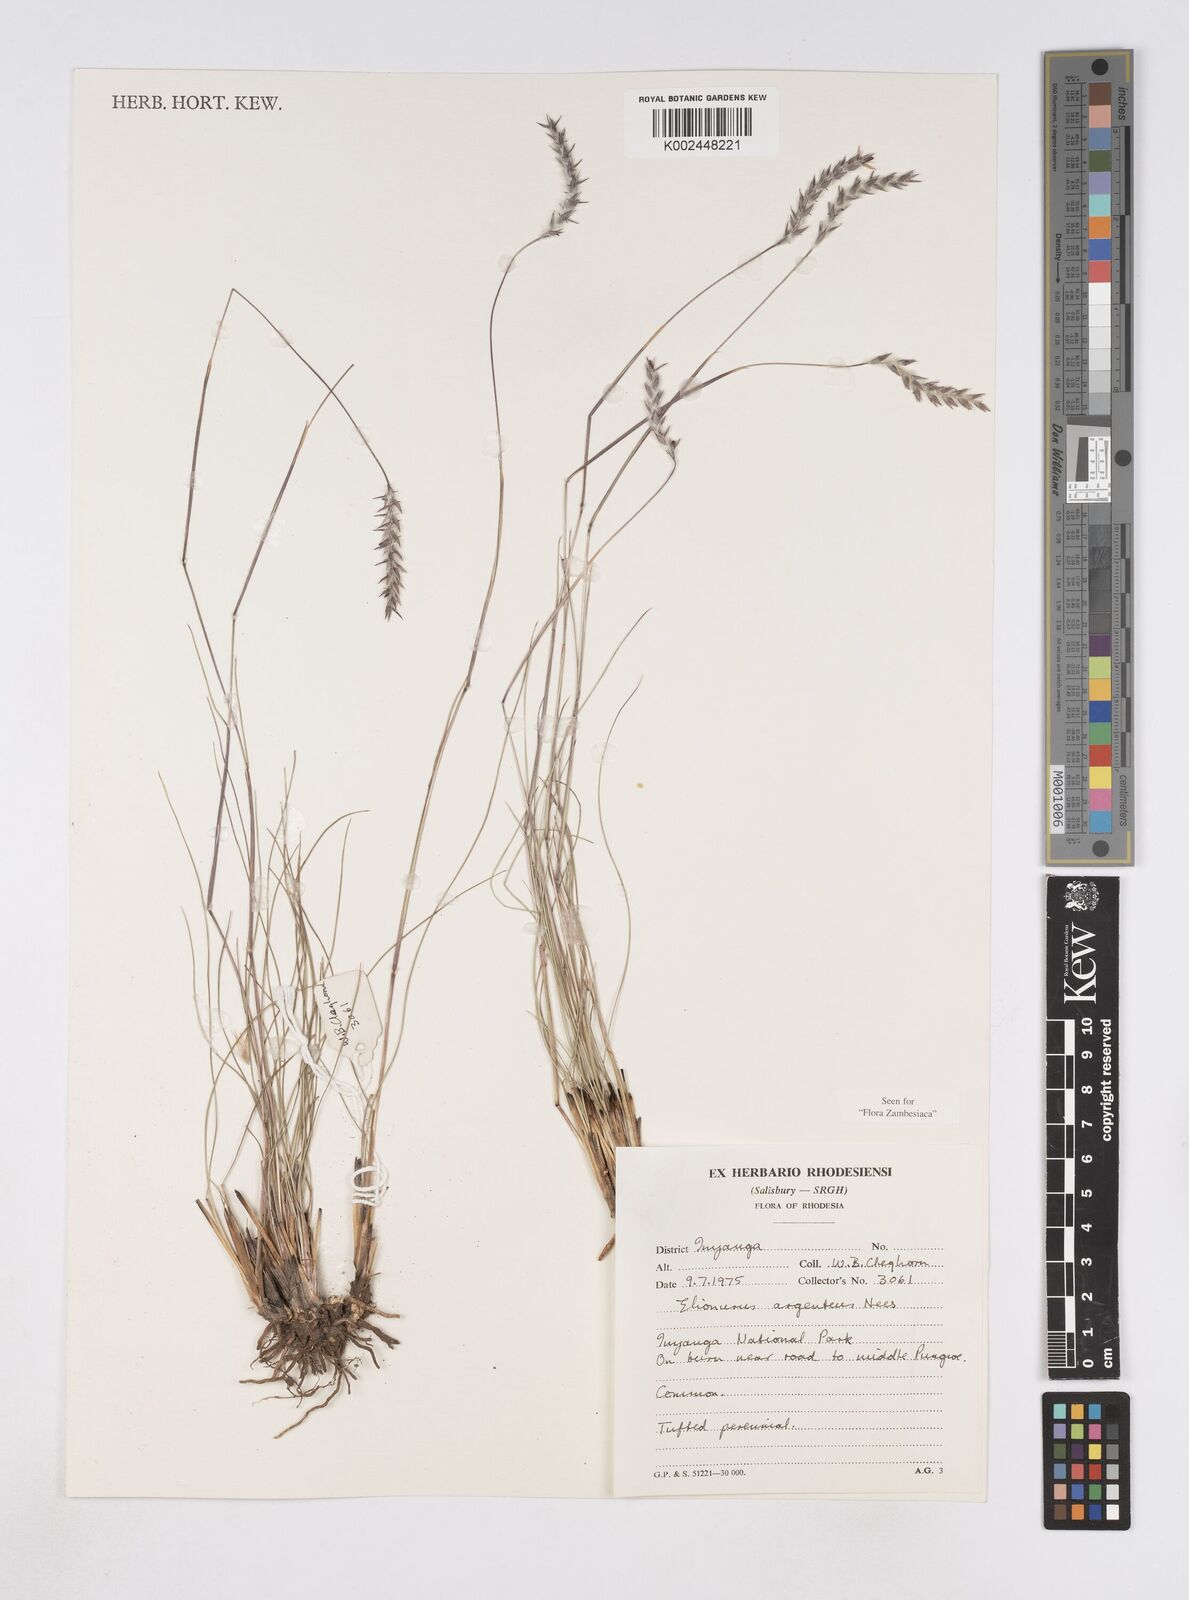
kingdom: Plantae
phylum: Tracheophyta
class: Liliopsida
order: Poales
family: Poaceae
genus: Elionurus
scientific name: Elionurus muticus
